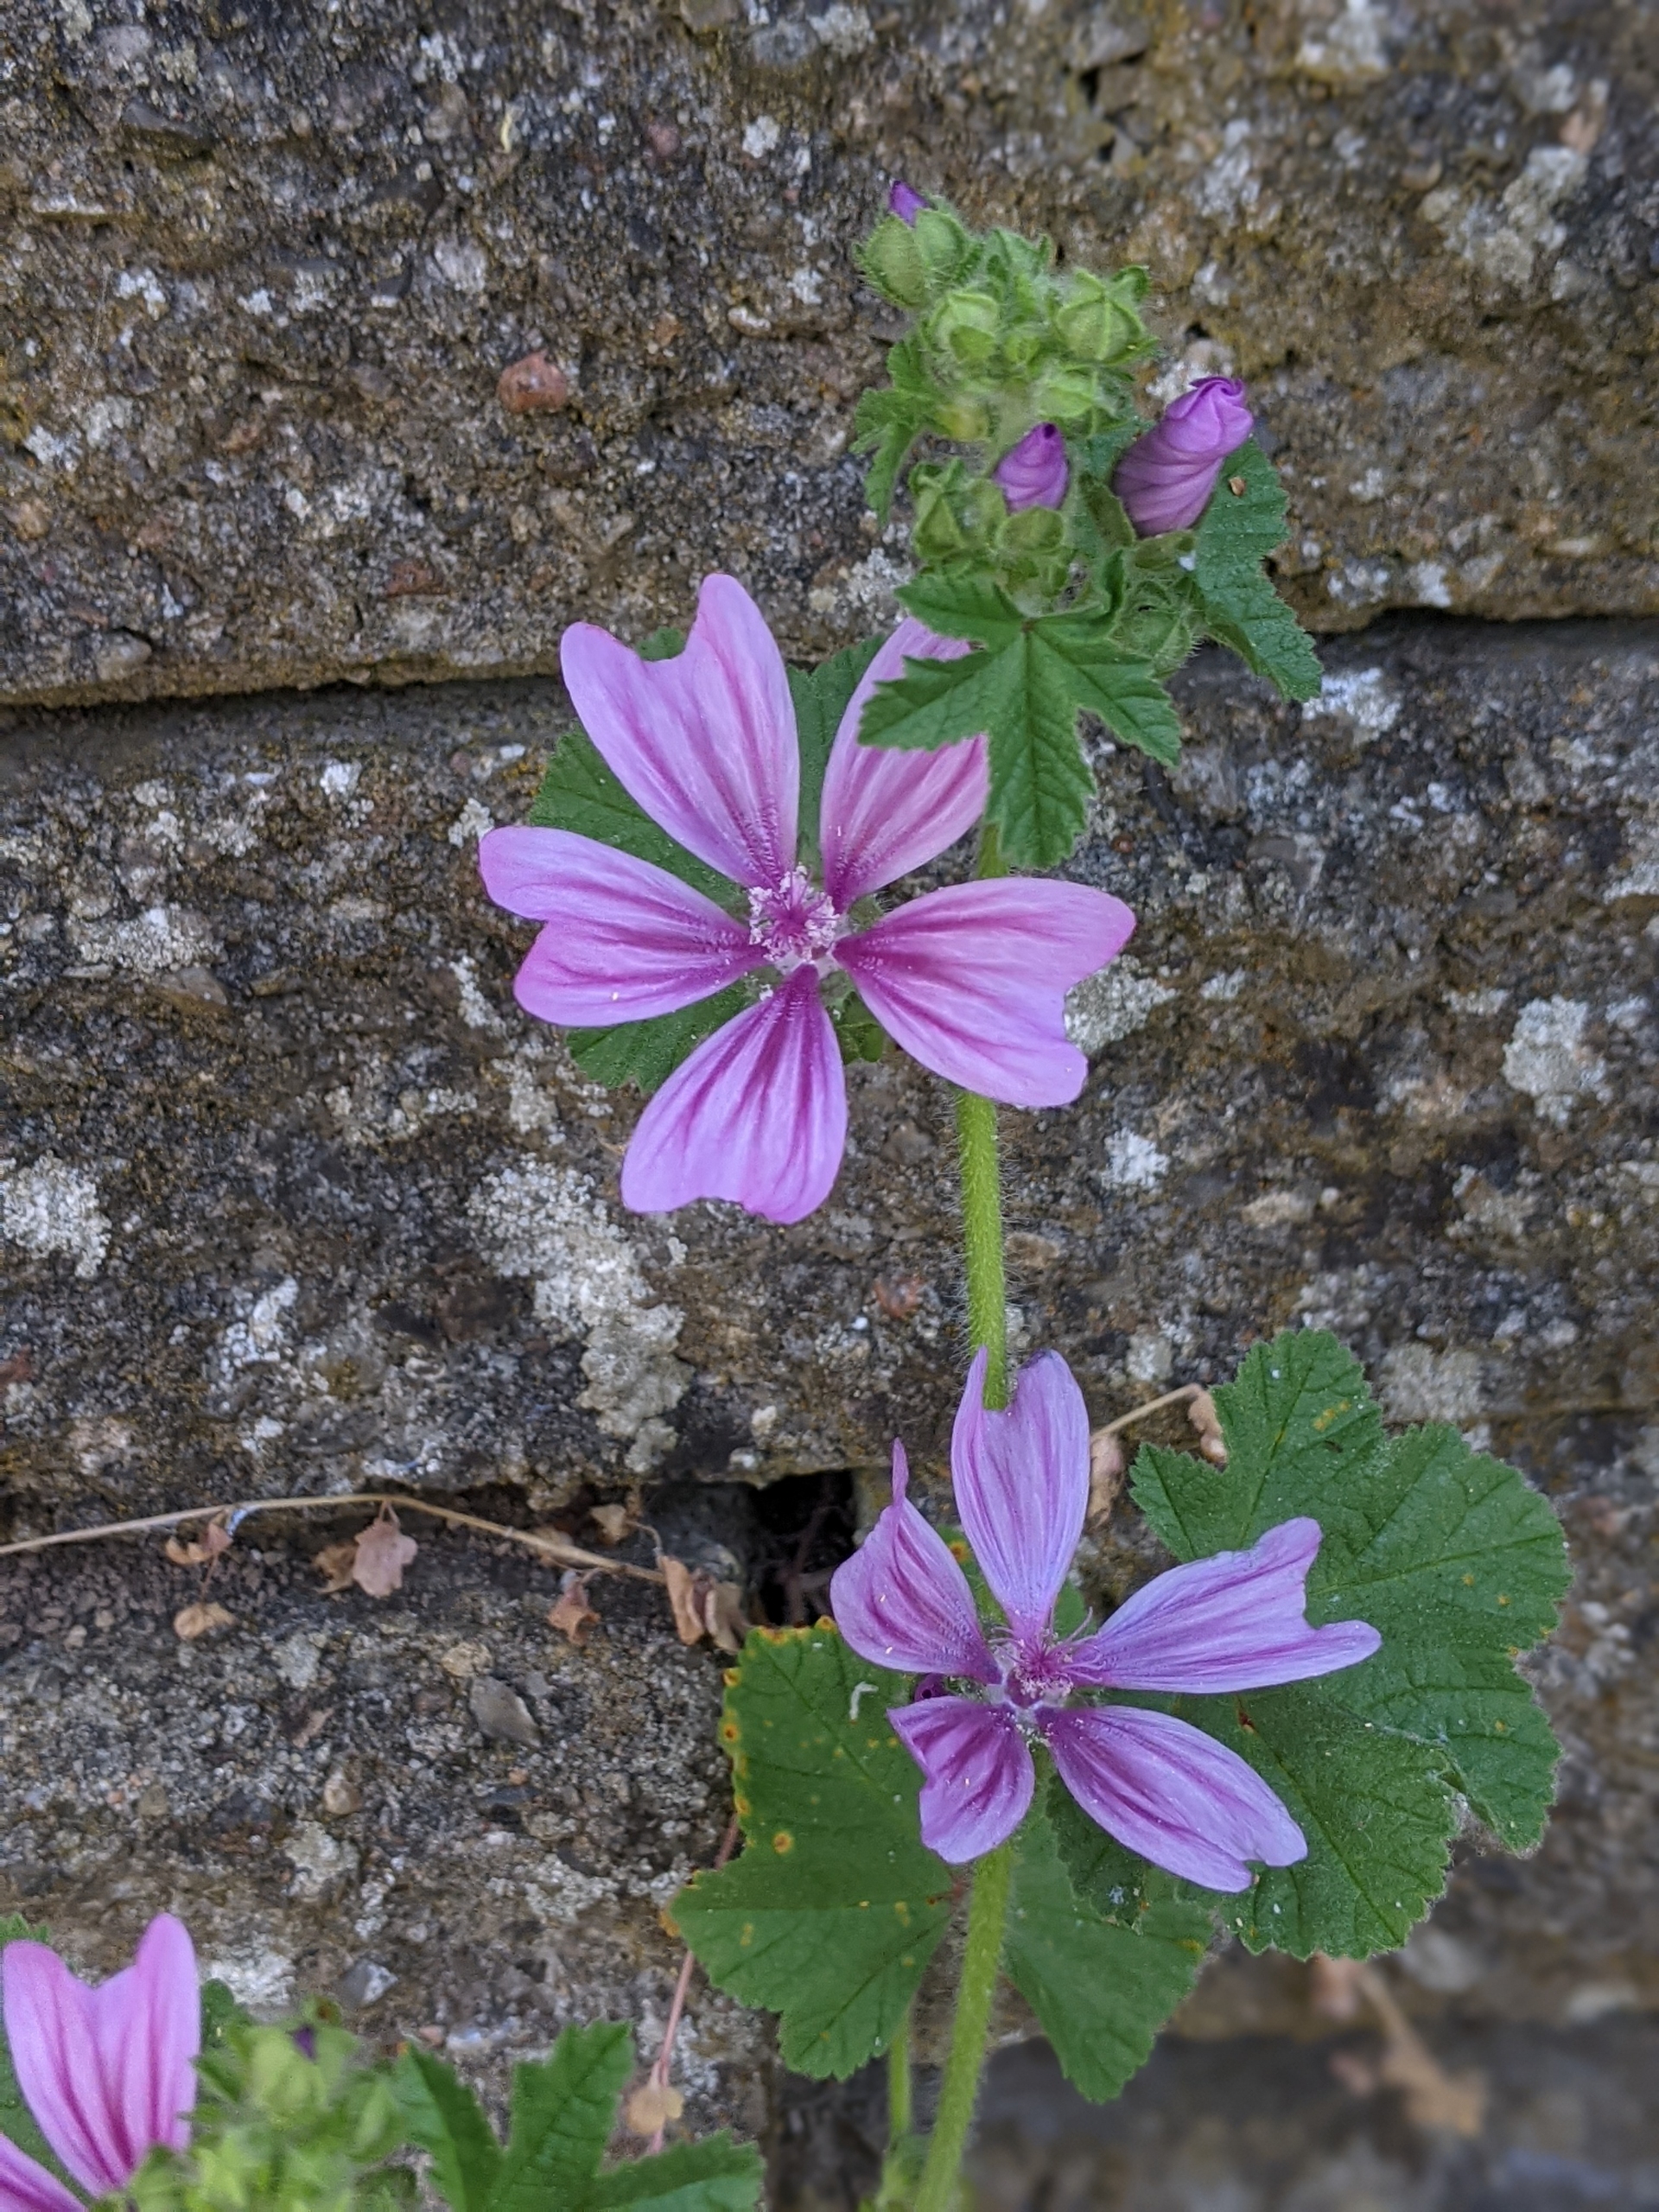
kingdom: Plantae
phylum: Tracheophyta
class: Magnoliopsida
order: Malvales
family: Malvaceae
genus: Malva
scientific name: Malva sylvestris
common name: Almindelig katost
